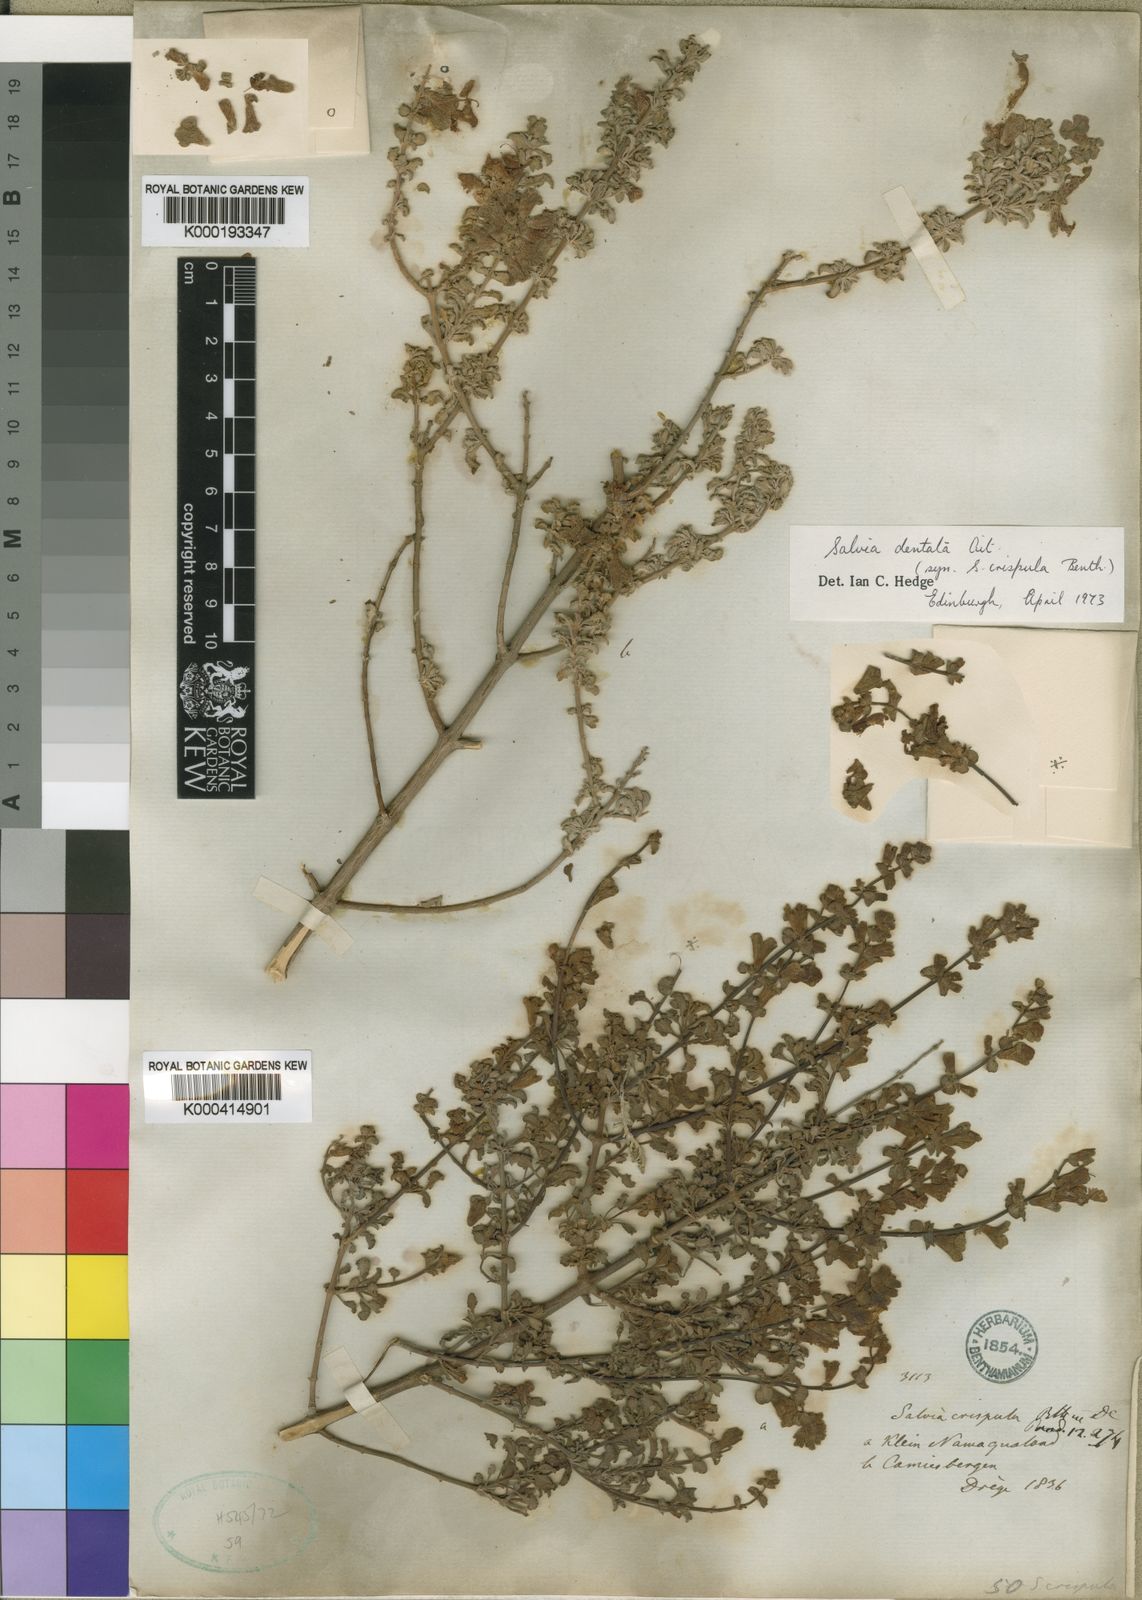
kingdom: Plantae
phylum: Tracheophyta
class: Magnoliopsida
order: Lamiales
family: Lamiaceae
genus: Salvia
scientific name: Salvia dentata
